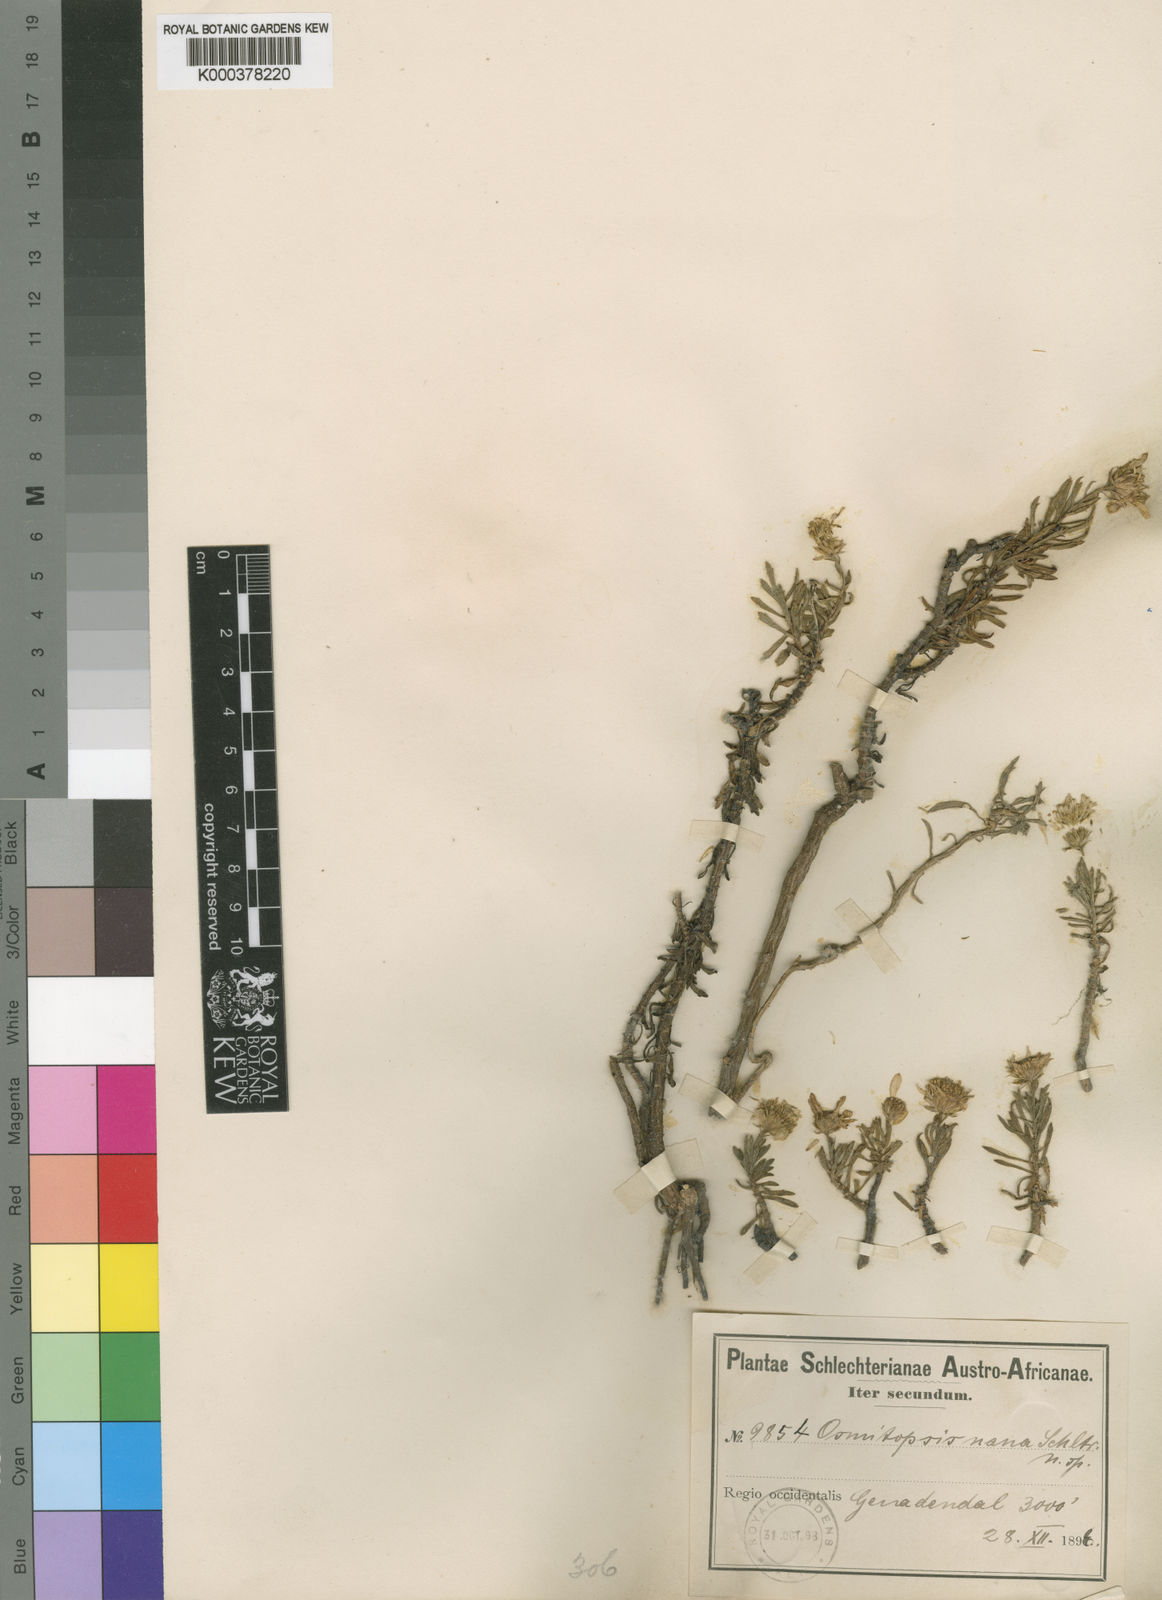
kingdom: Plantae
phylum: Tracheophyta
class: Magnoliopsida
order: Asterales
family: Asteraceae
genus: Osmitopsis
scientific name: Osmitopsis nana
